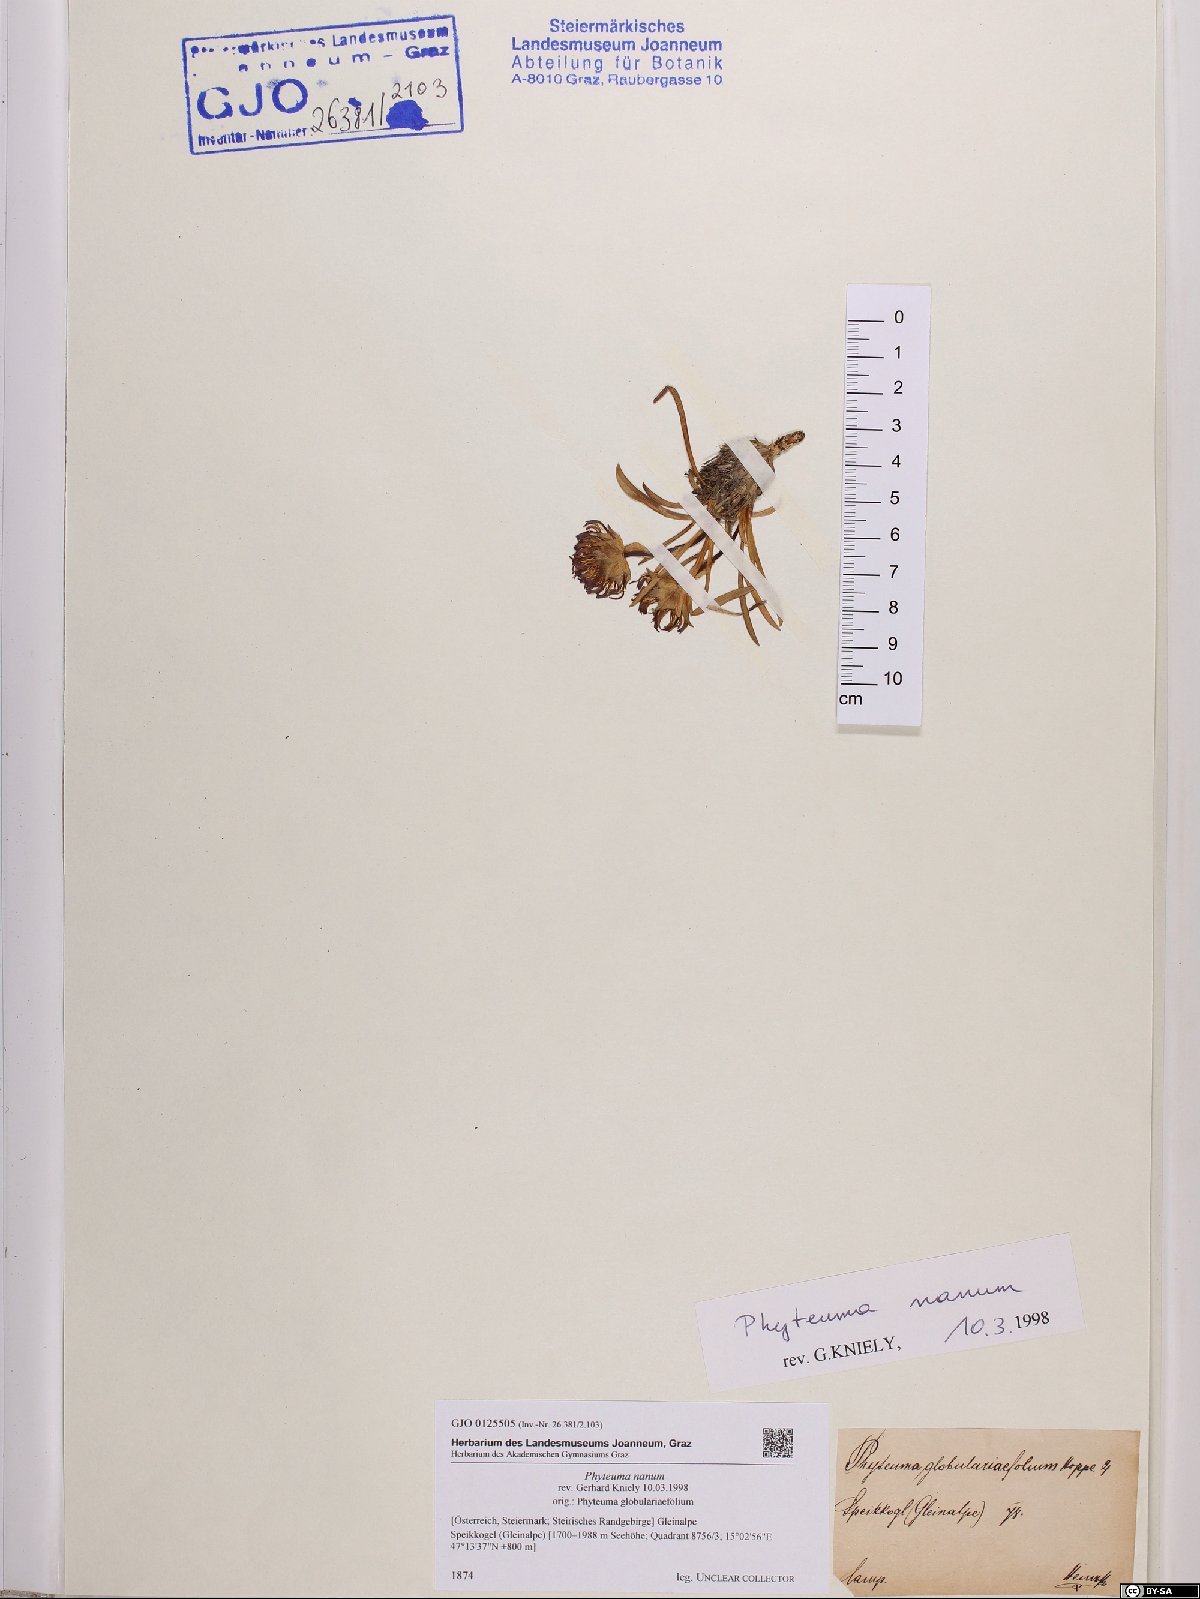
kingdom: Plantae
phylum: Tracheophyta
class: Magnoliopsida
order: Asterales
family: Campanulaceae
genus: Phyteuma
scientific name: Phyteuma globulariifolium
